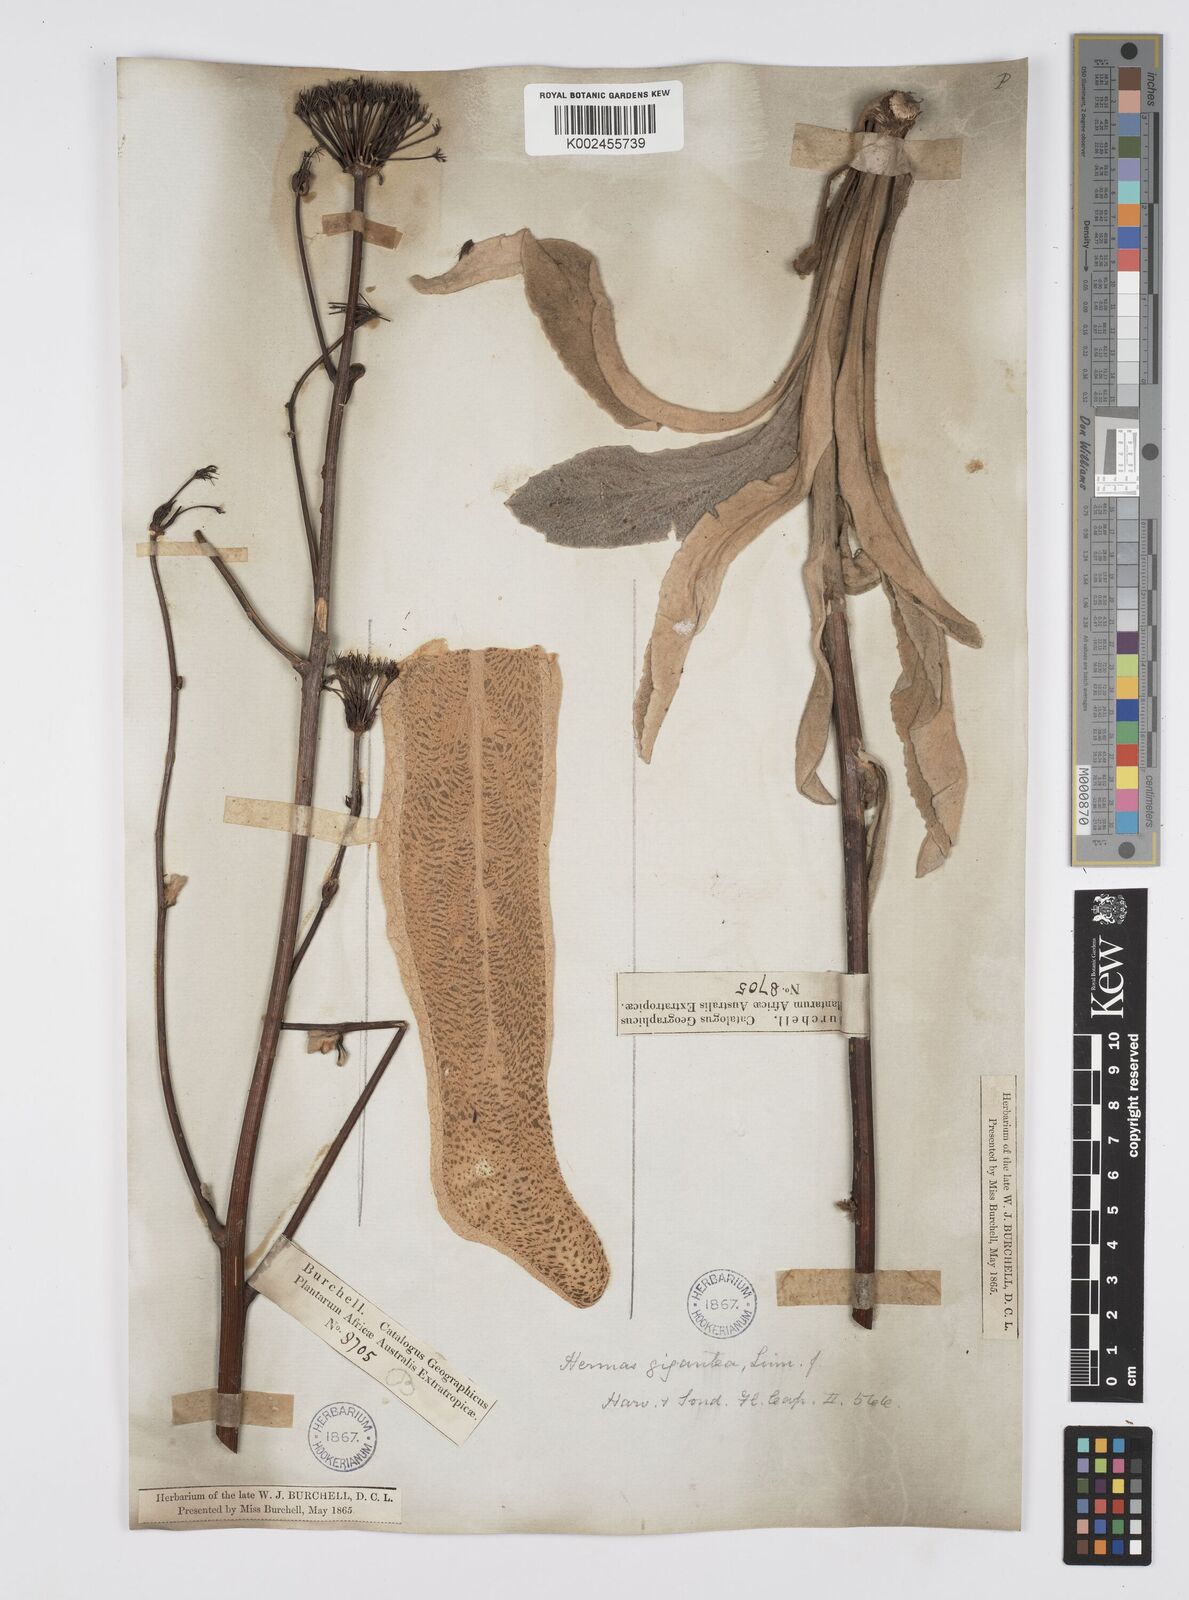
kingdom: Plantae
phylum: Tracheophyta
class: Magnoliopsida
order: Apiales
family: Apiaceae
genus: Hermas
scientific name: Hermas gigantea
